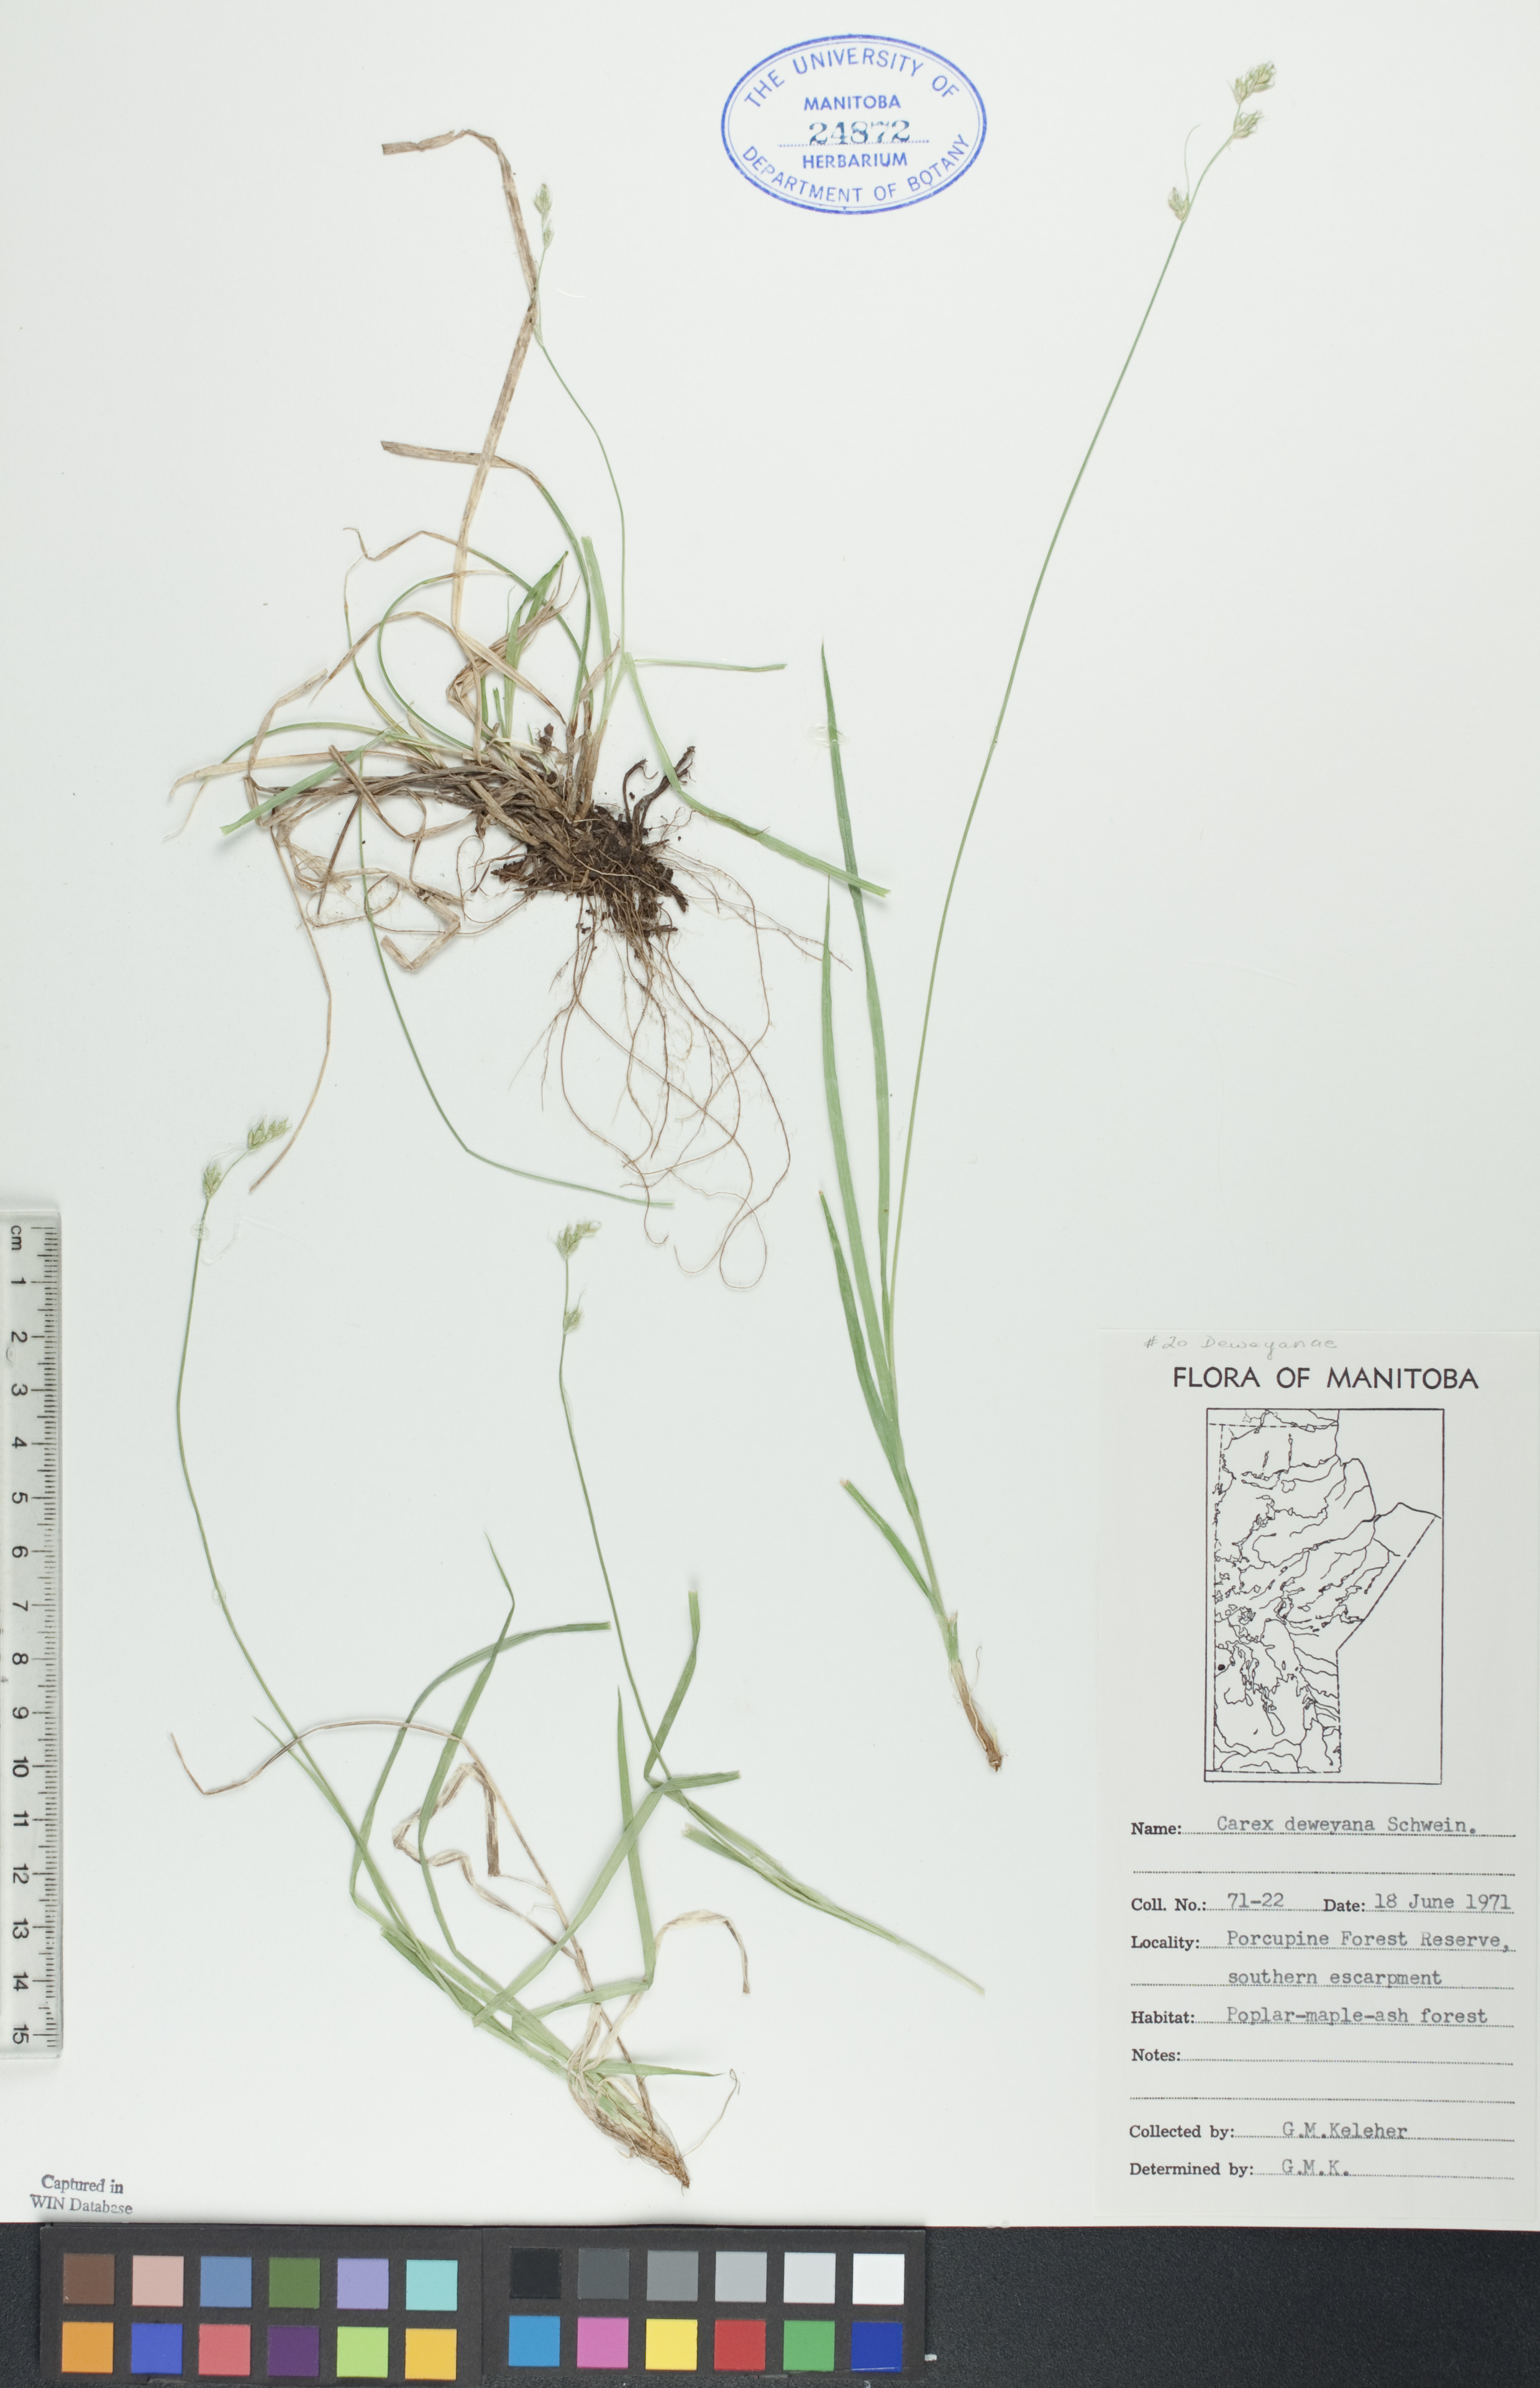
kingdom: Plantae
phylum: Tracheophyta
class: Liliopsida
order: Poales
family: Cyperaceae
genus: Carex
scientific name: Carex deweyana
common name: Dewey's sedge
